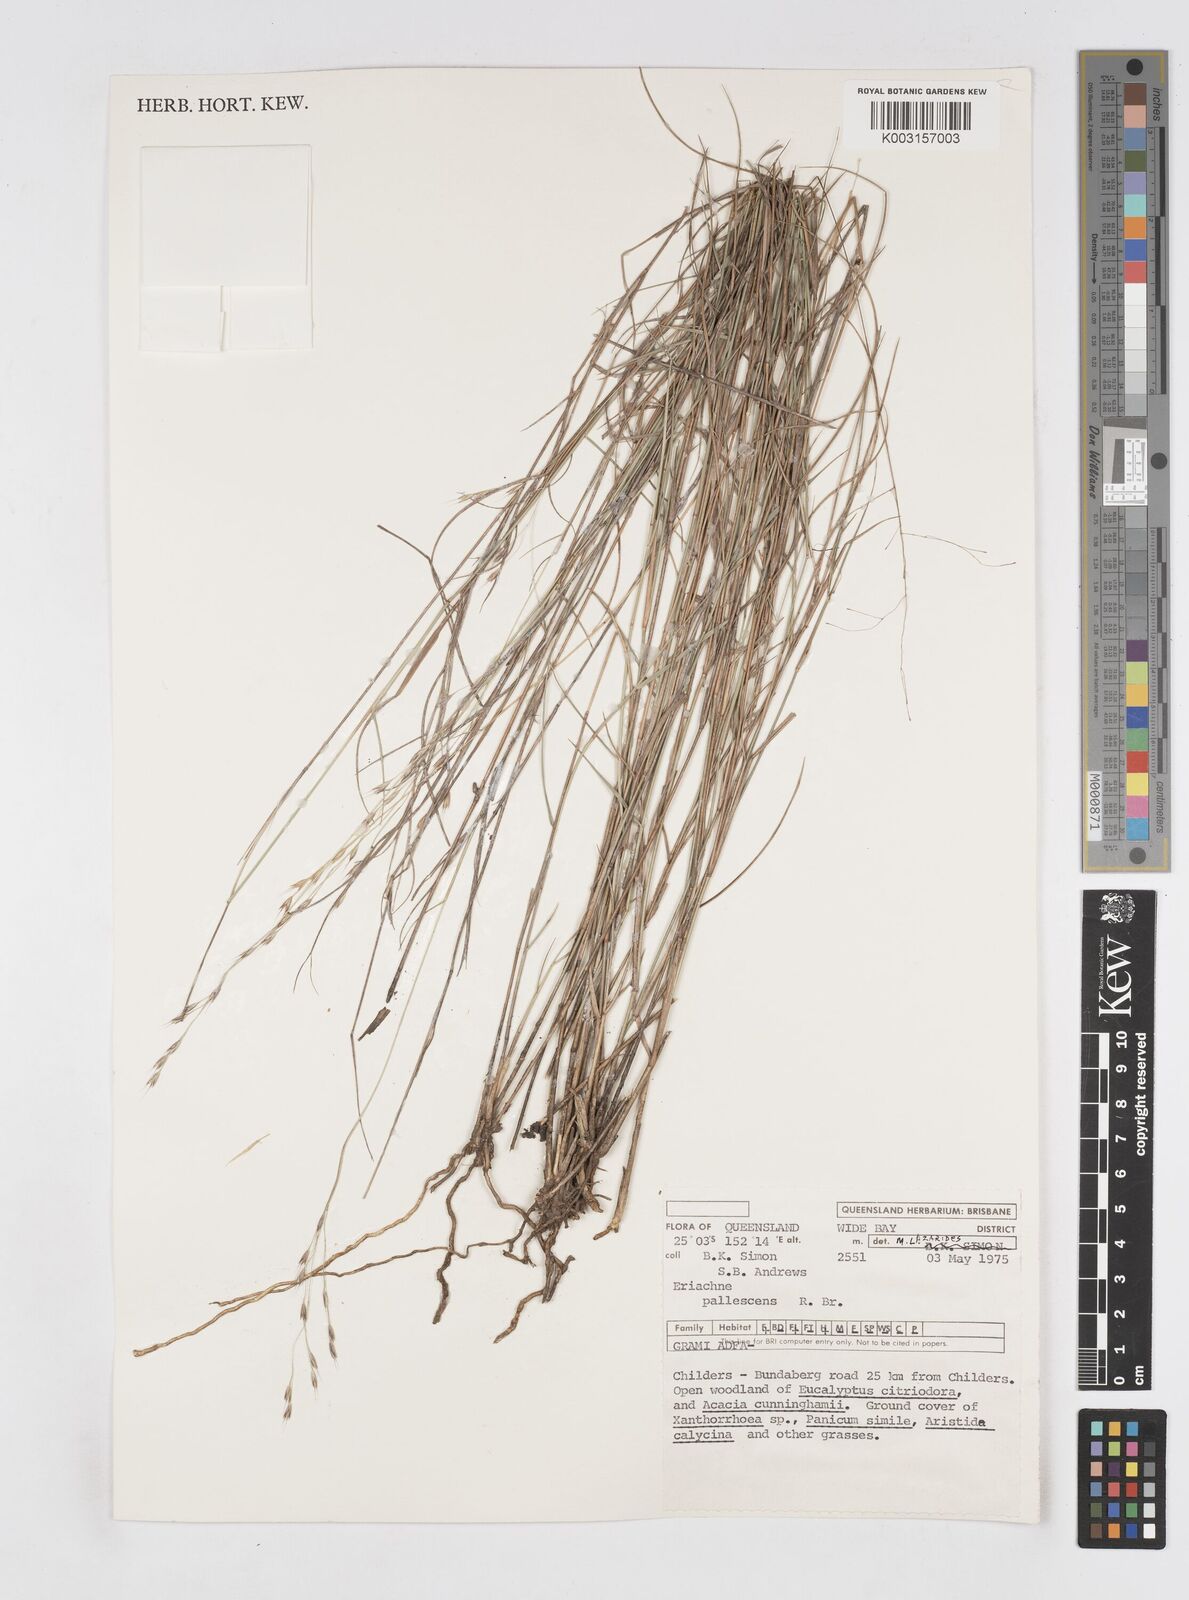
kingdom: Plantae
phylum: Tracheophyta
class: Liliopsida
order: Poales
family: Poaceae
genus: Eriachne
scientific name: Eriachne pallescens
